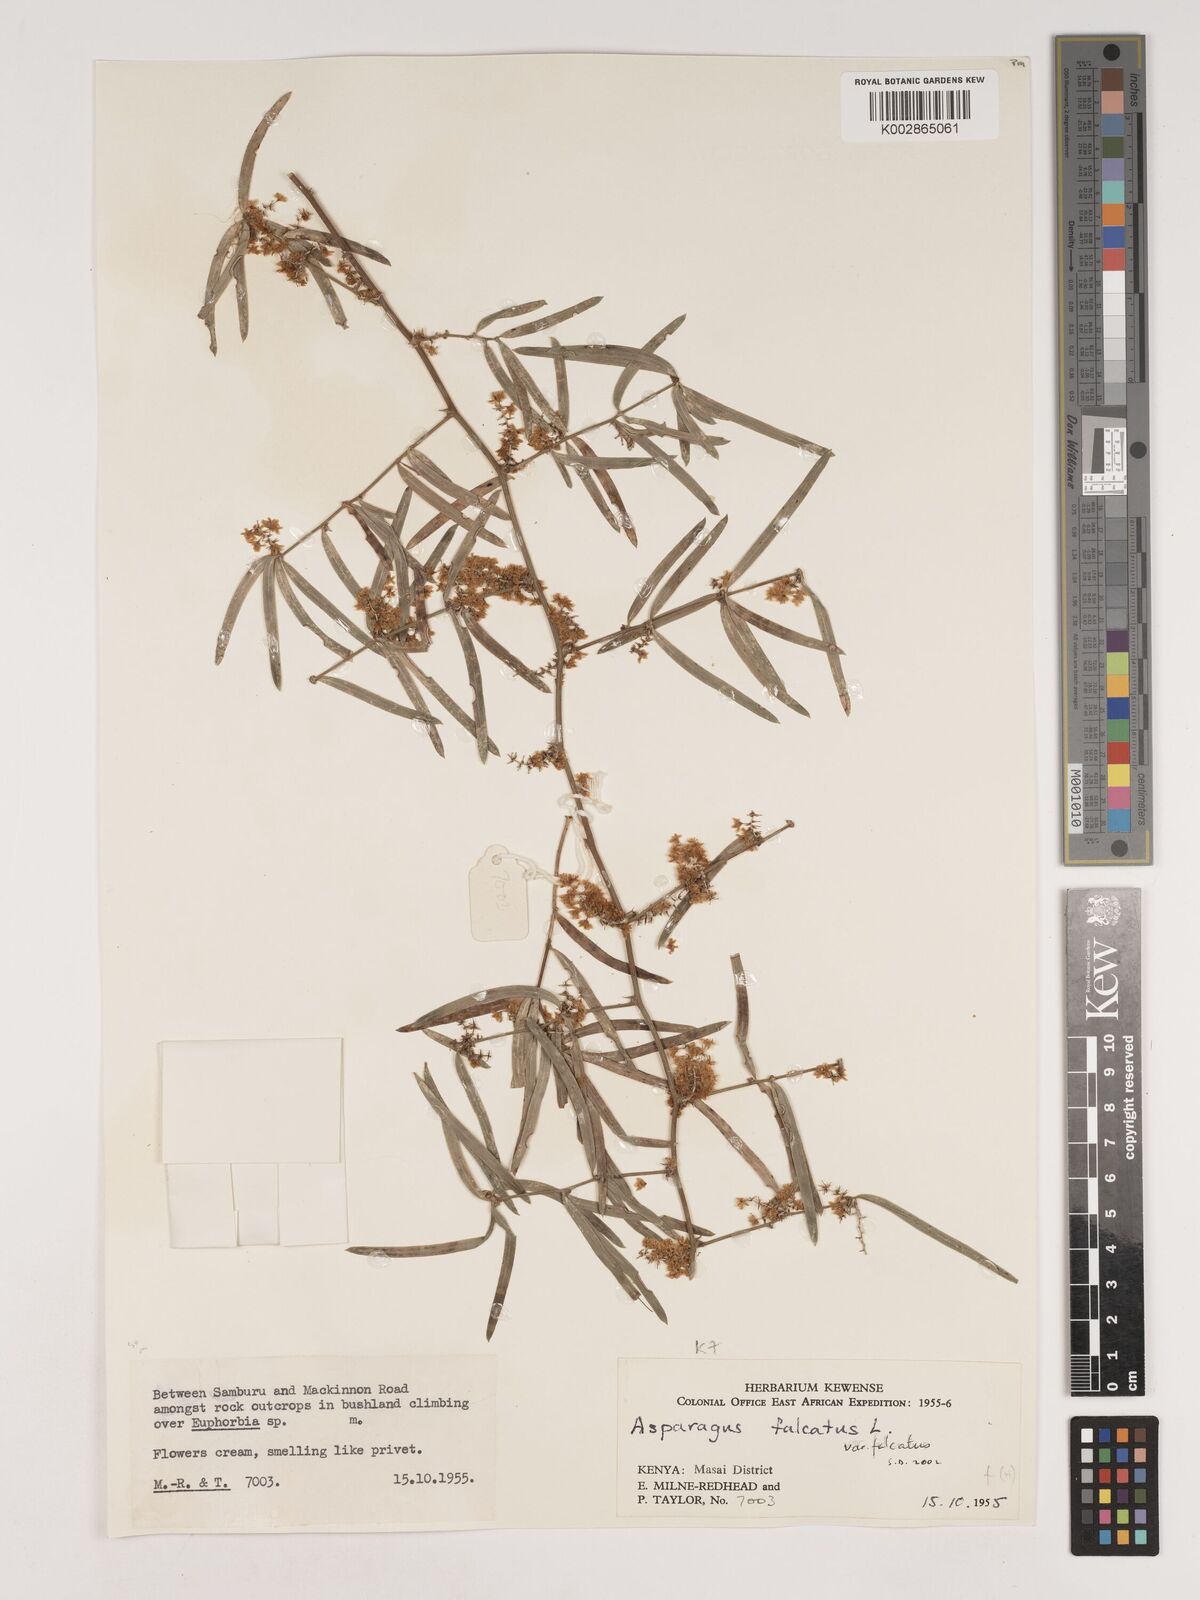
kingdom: Plantae
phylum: Tracheophyta
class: Liliopsida
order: Asparagales
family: Asparagaceae
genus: Asparagus
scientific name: Asparagus falcatus
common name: Asparagus
